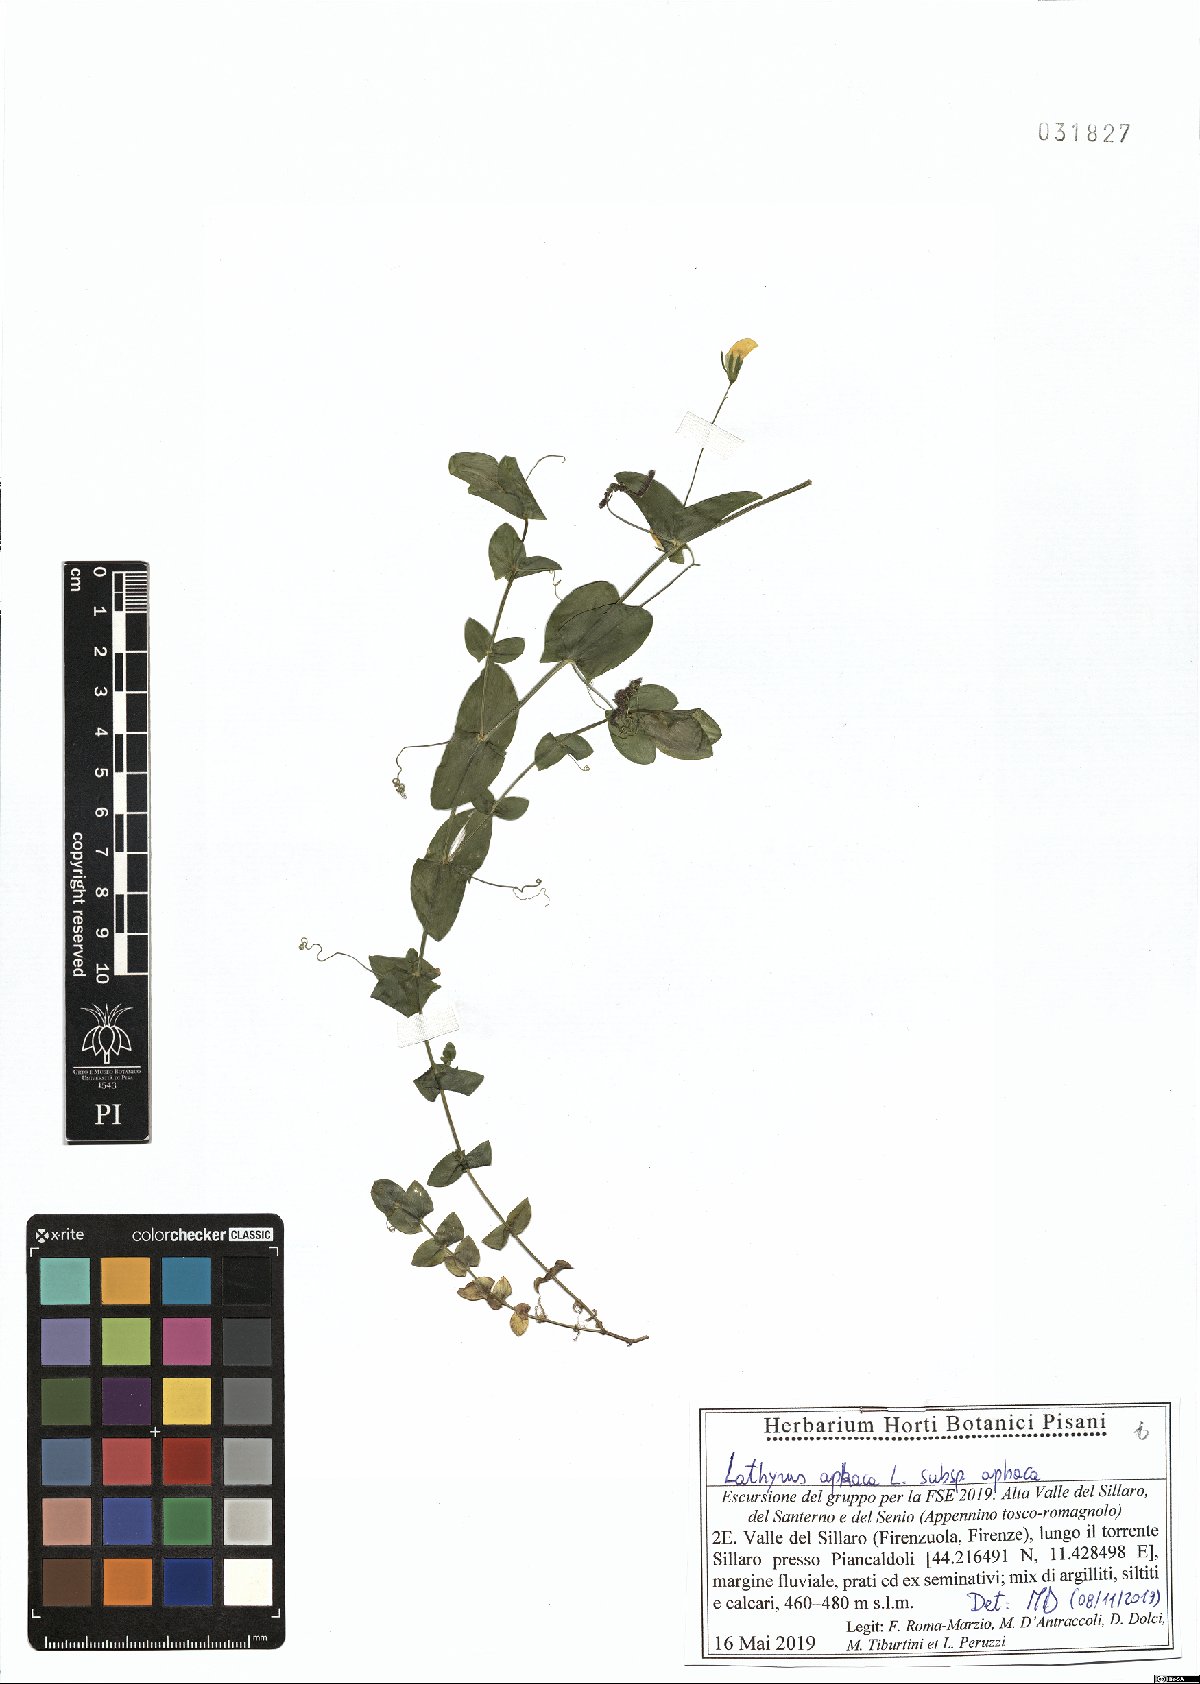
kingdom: Plantae
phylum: Tracheophyta
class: Magnoliopsida
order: Fabales
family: Fabaceae
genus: Lathyrus
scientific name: Lathyrus aphaca
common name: Yellow vetchling
